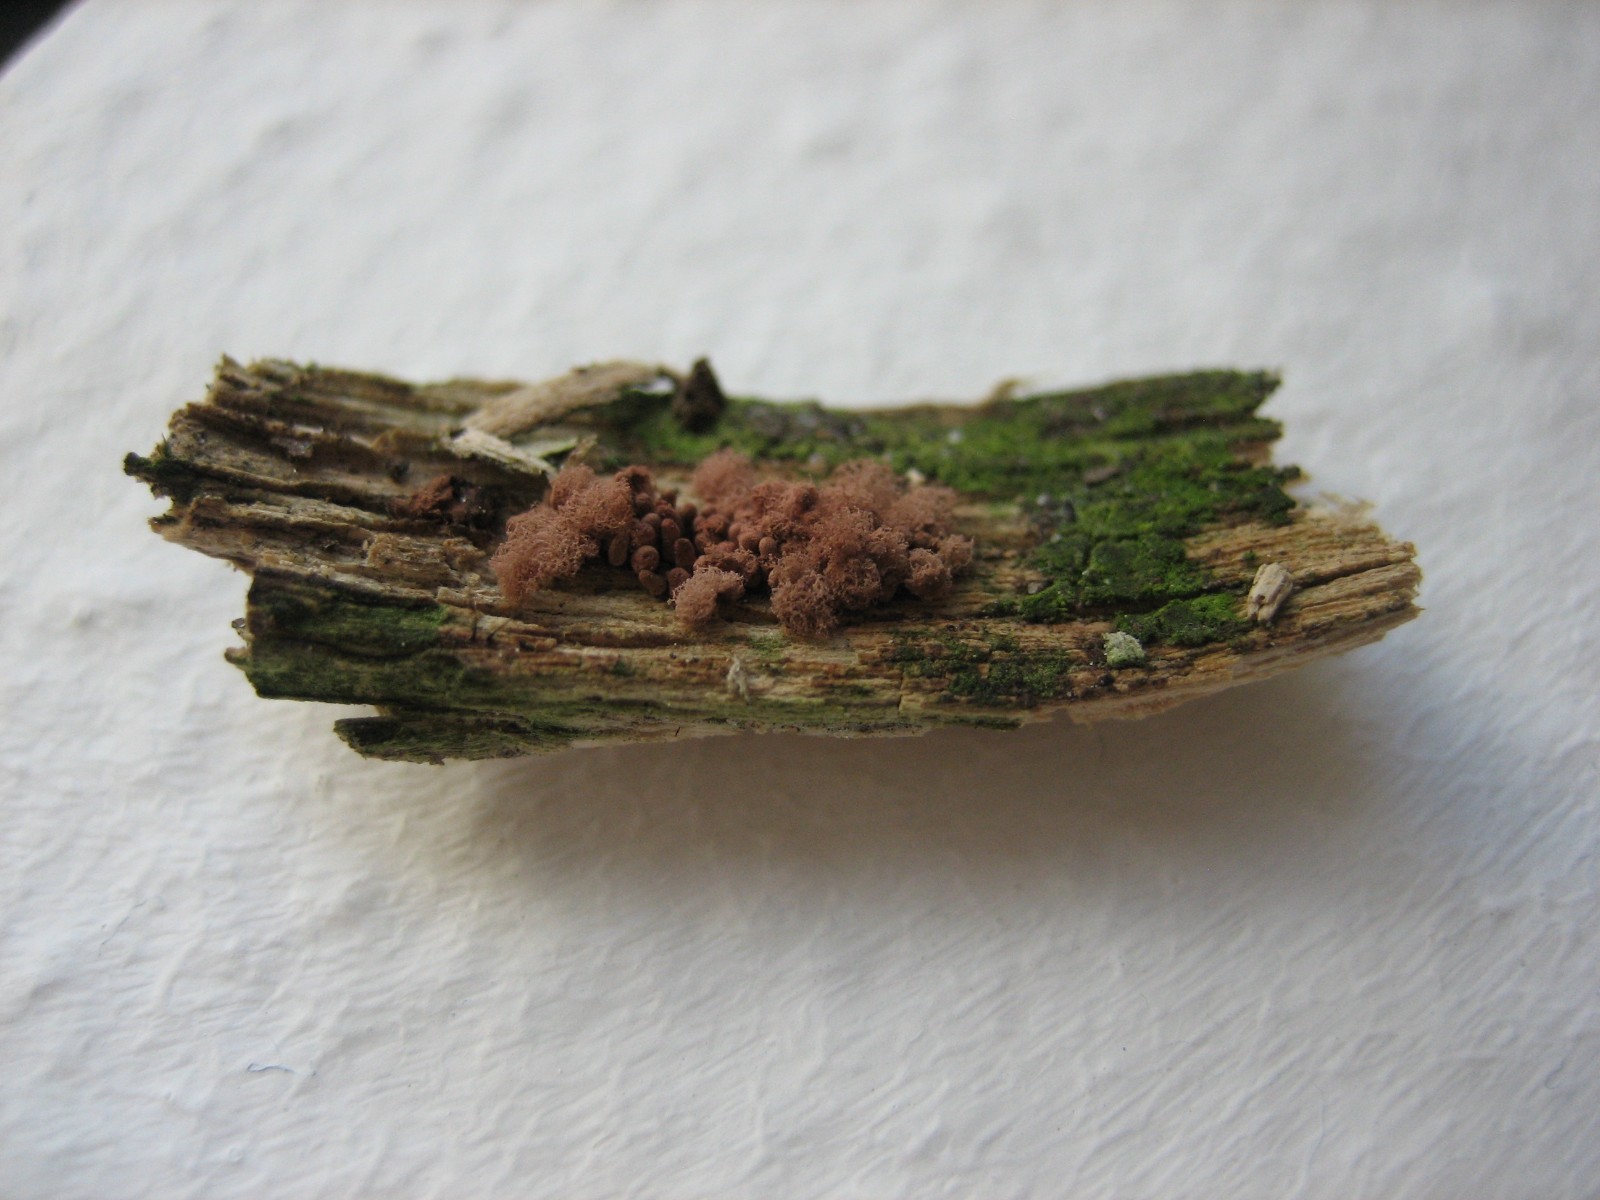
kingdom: Protozoa
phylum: Mycetozoa
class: Myxomycetes
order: Trichiales
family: Arcyriaceae
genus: Arcyria
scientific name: Arcyria incarnata
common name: rosa skålsvøb
